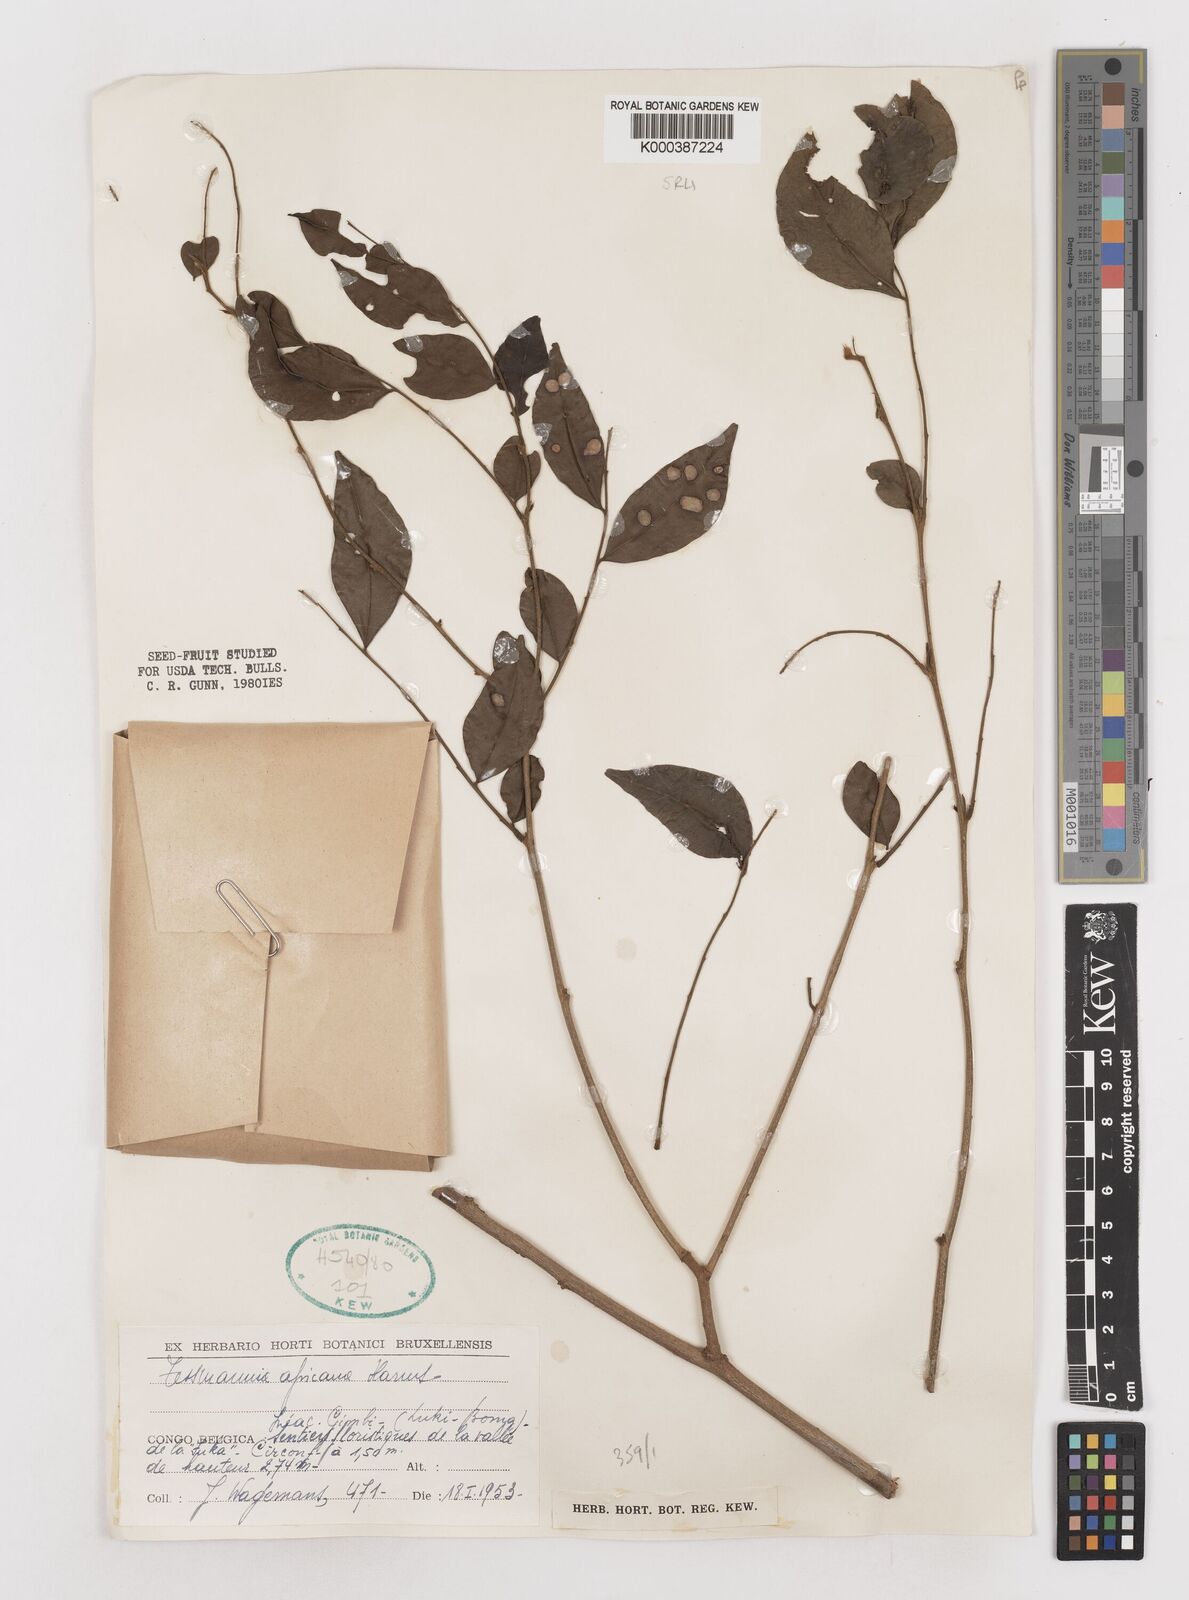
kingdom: Plantae
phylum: Tracheophyta
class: Magnoliopsida
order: Fabales
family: Fabaceae
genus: Tessmannia
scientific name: Tessmannia africana
